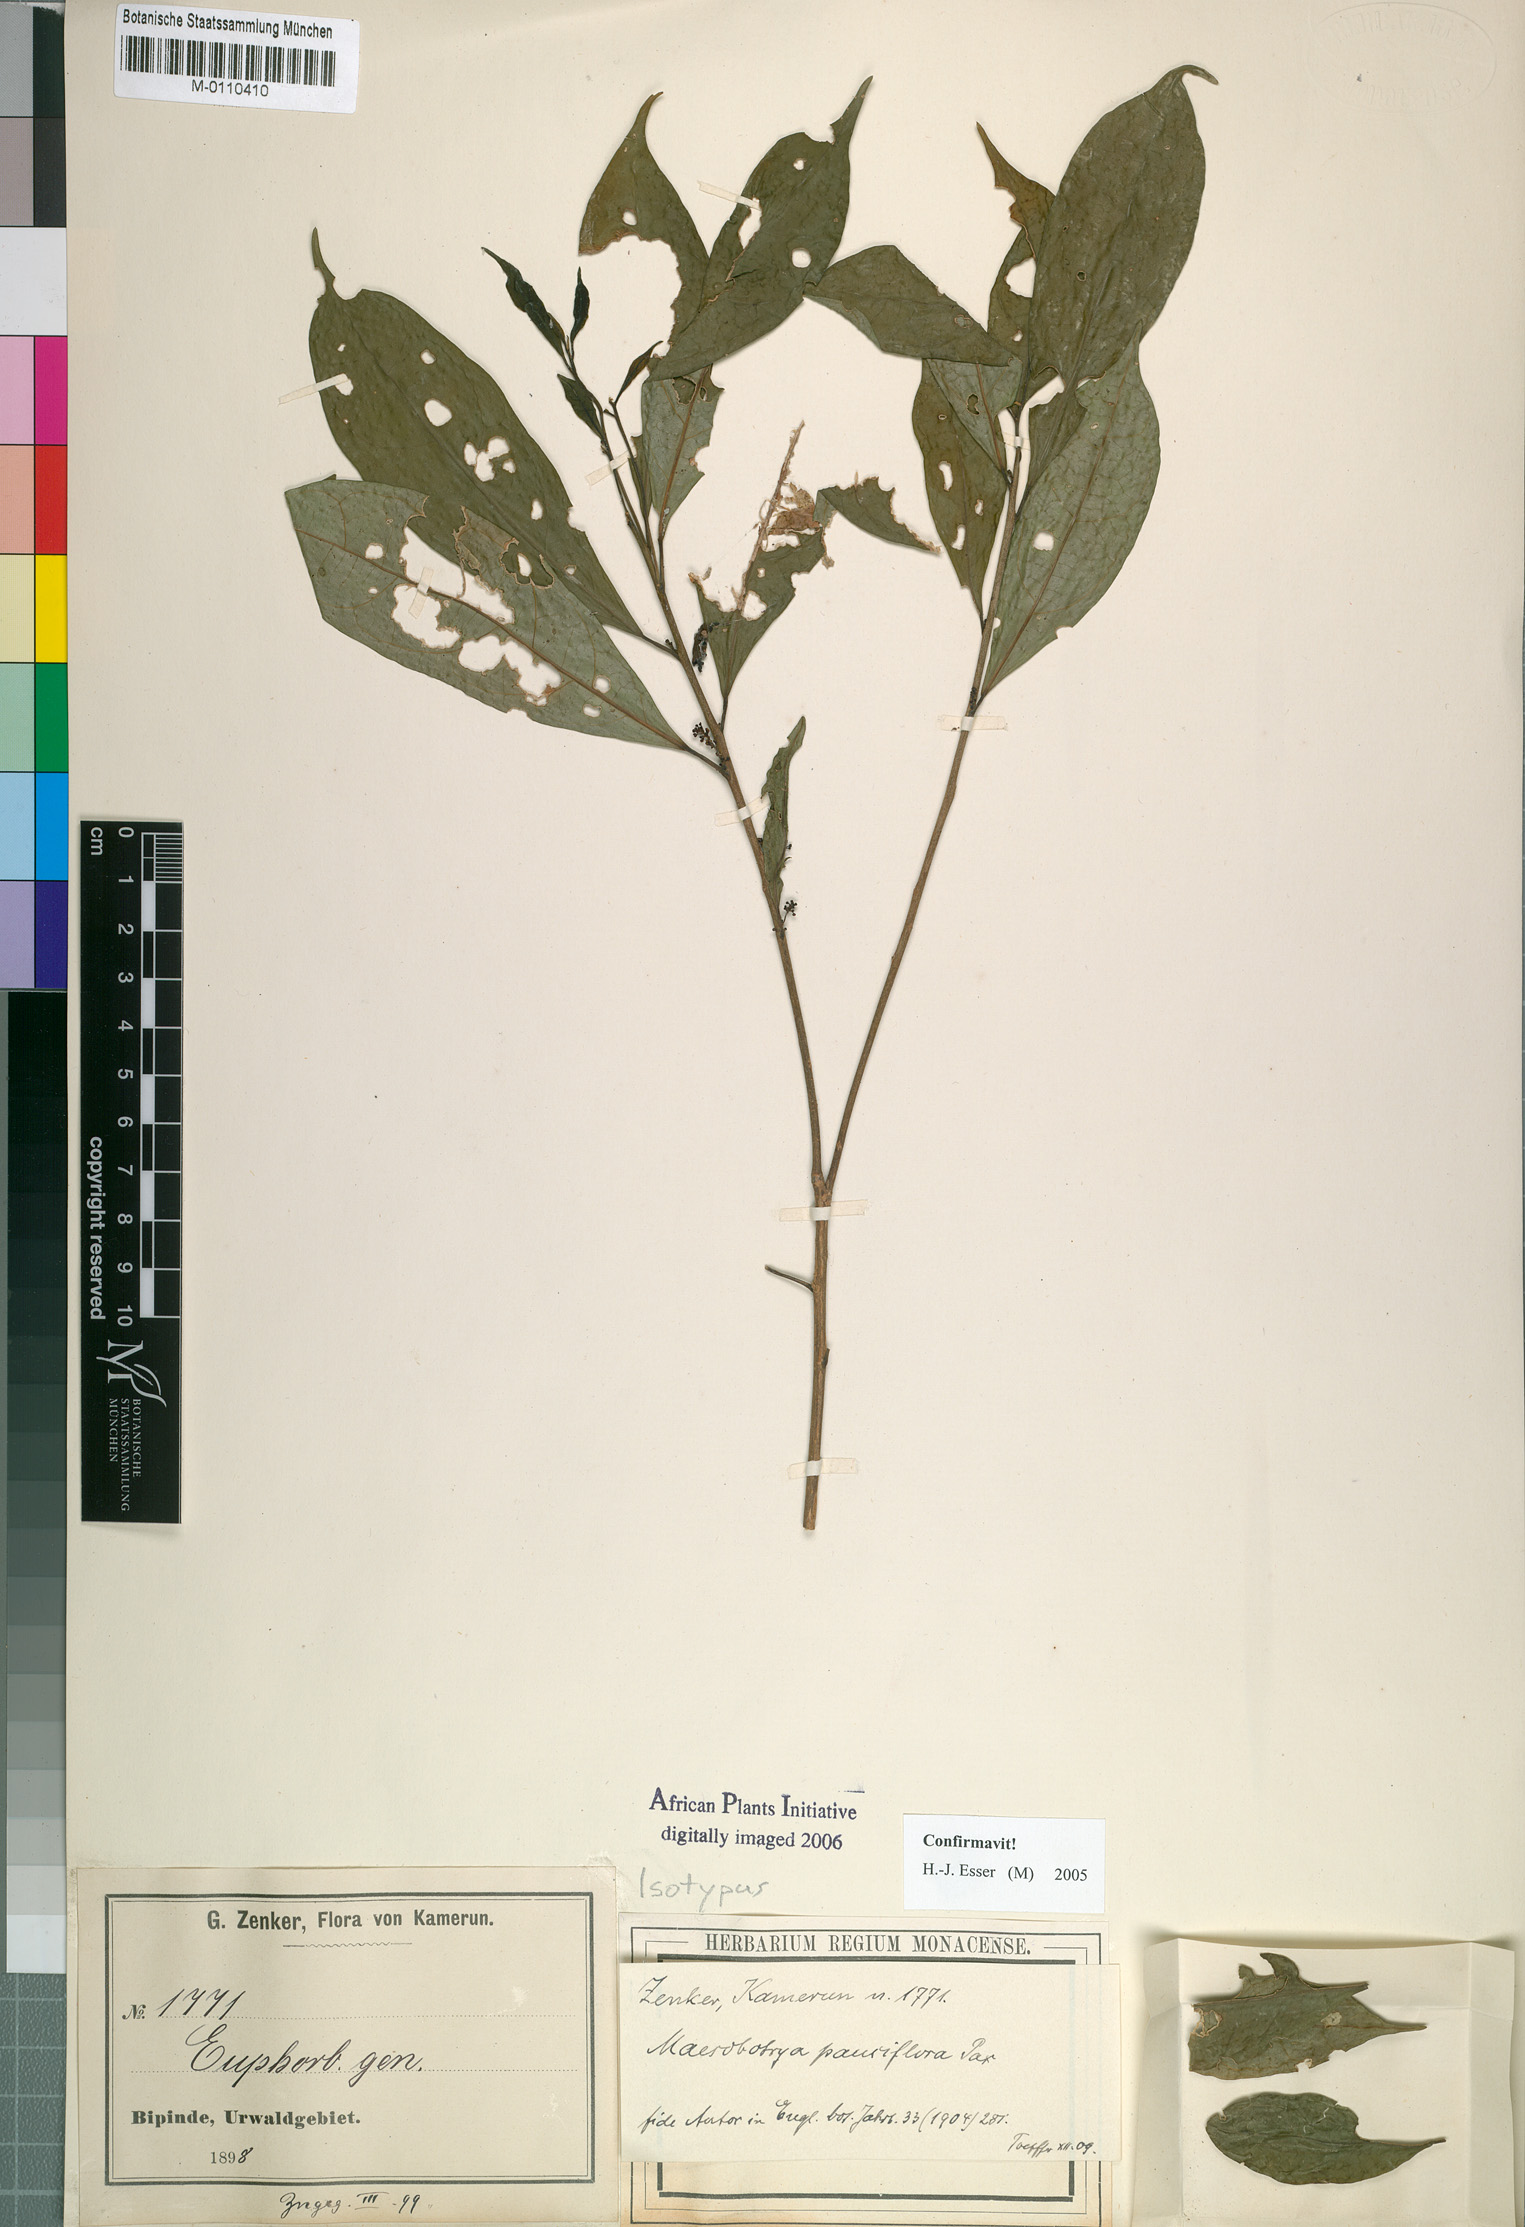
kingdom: Plantae
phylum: Tracheophyta
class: Magnoliopsida
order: Malpighiales
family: Phyllanthaceae
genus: Maesobotrya
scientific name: Maesobotrya pauciflora
